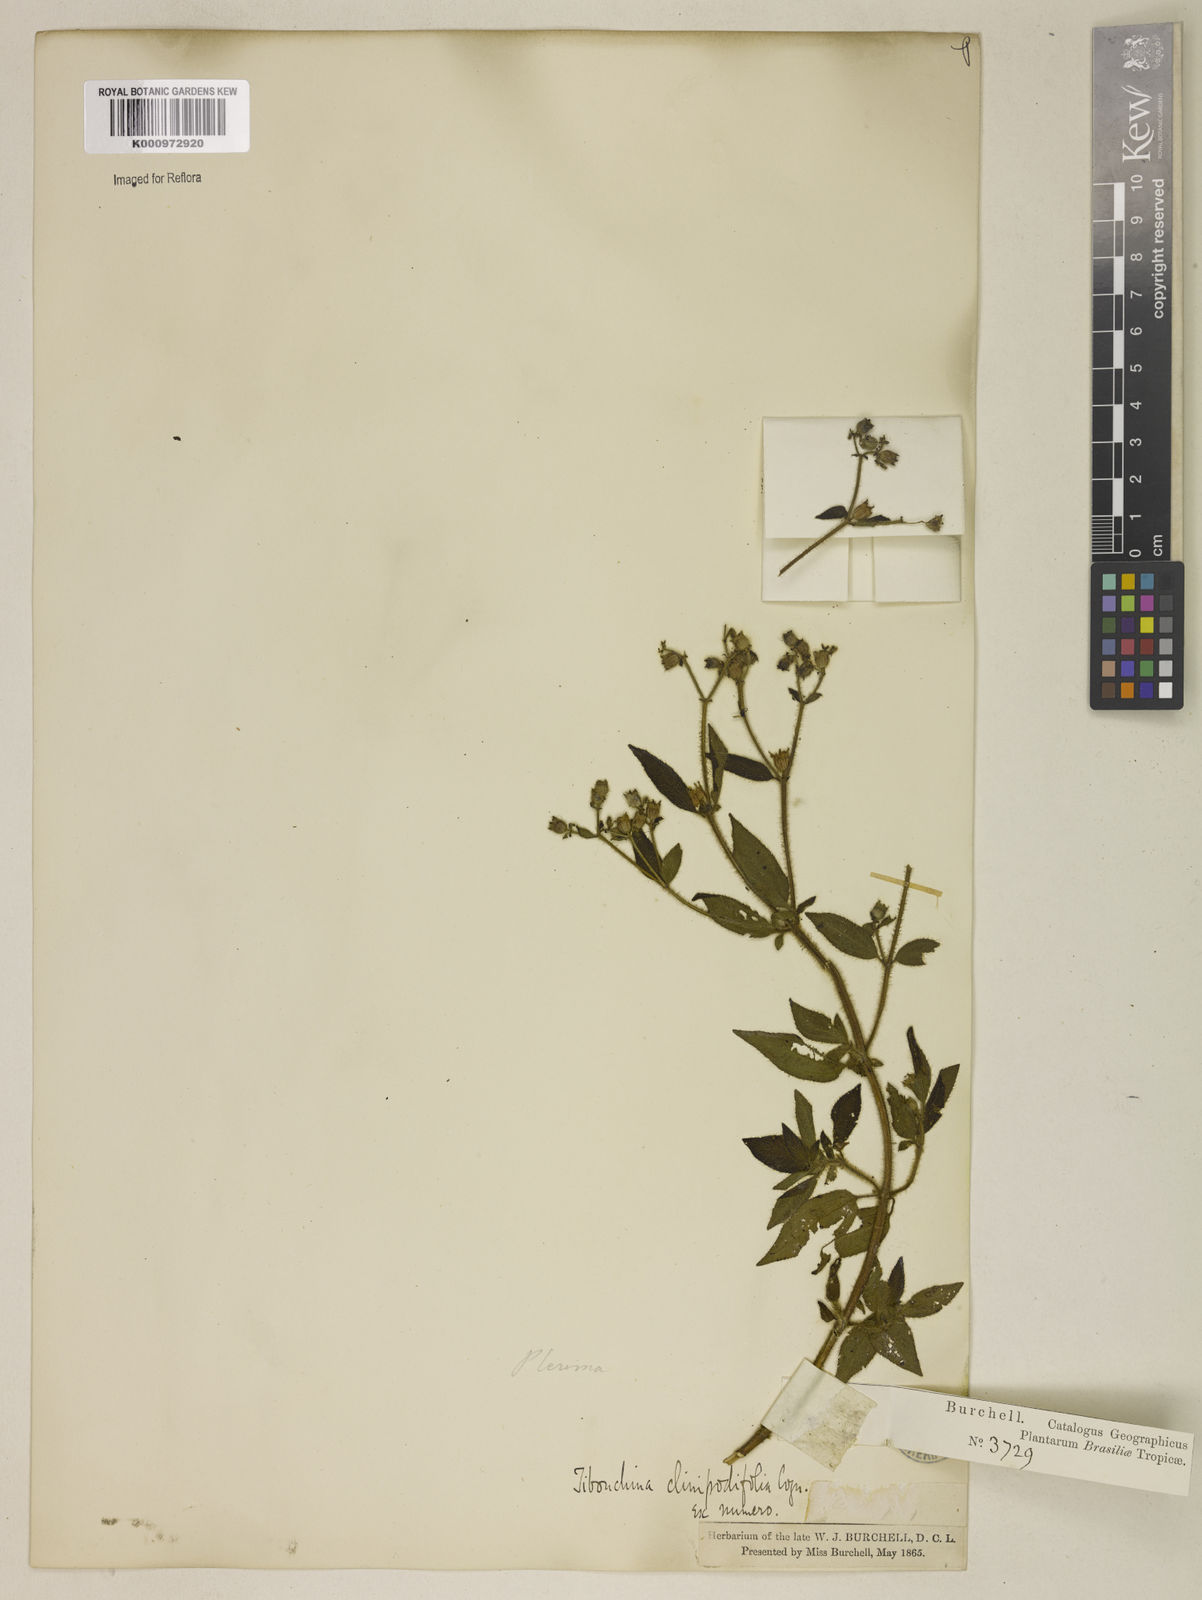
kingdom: Plantae
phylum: Tracheophyta
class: Magnoliopsida
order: Myrtales
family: Melastomataceae
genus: Chaetogastra
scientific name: Chaetogastra clinopodifolia
